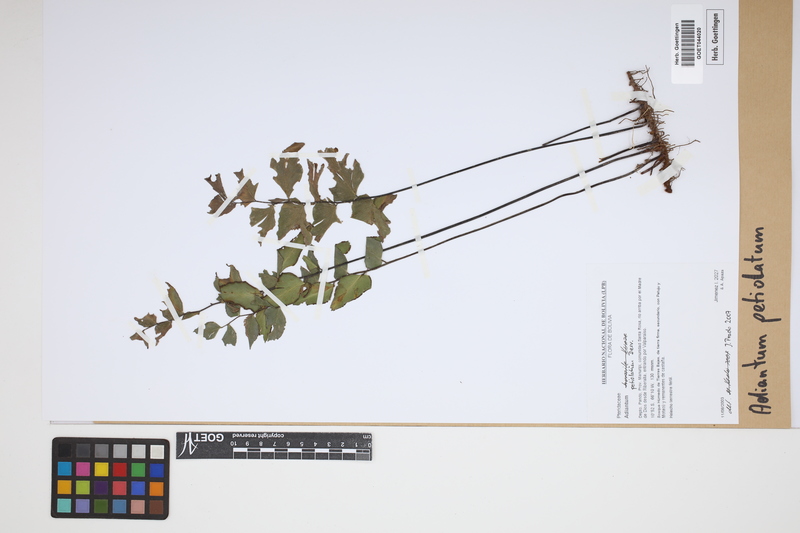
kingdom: Plantae
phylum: Tracheophyta
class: Polypodiopsida
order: Polypodiales
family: Pteridaceae
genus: Adiantum
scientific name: Adiantum petiolatum
